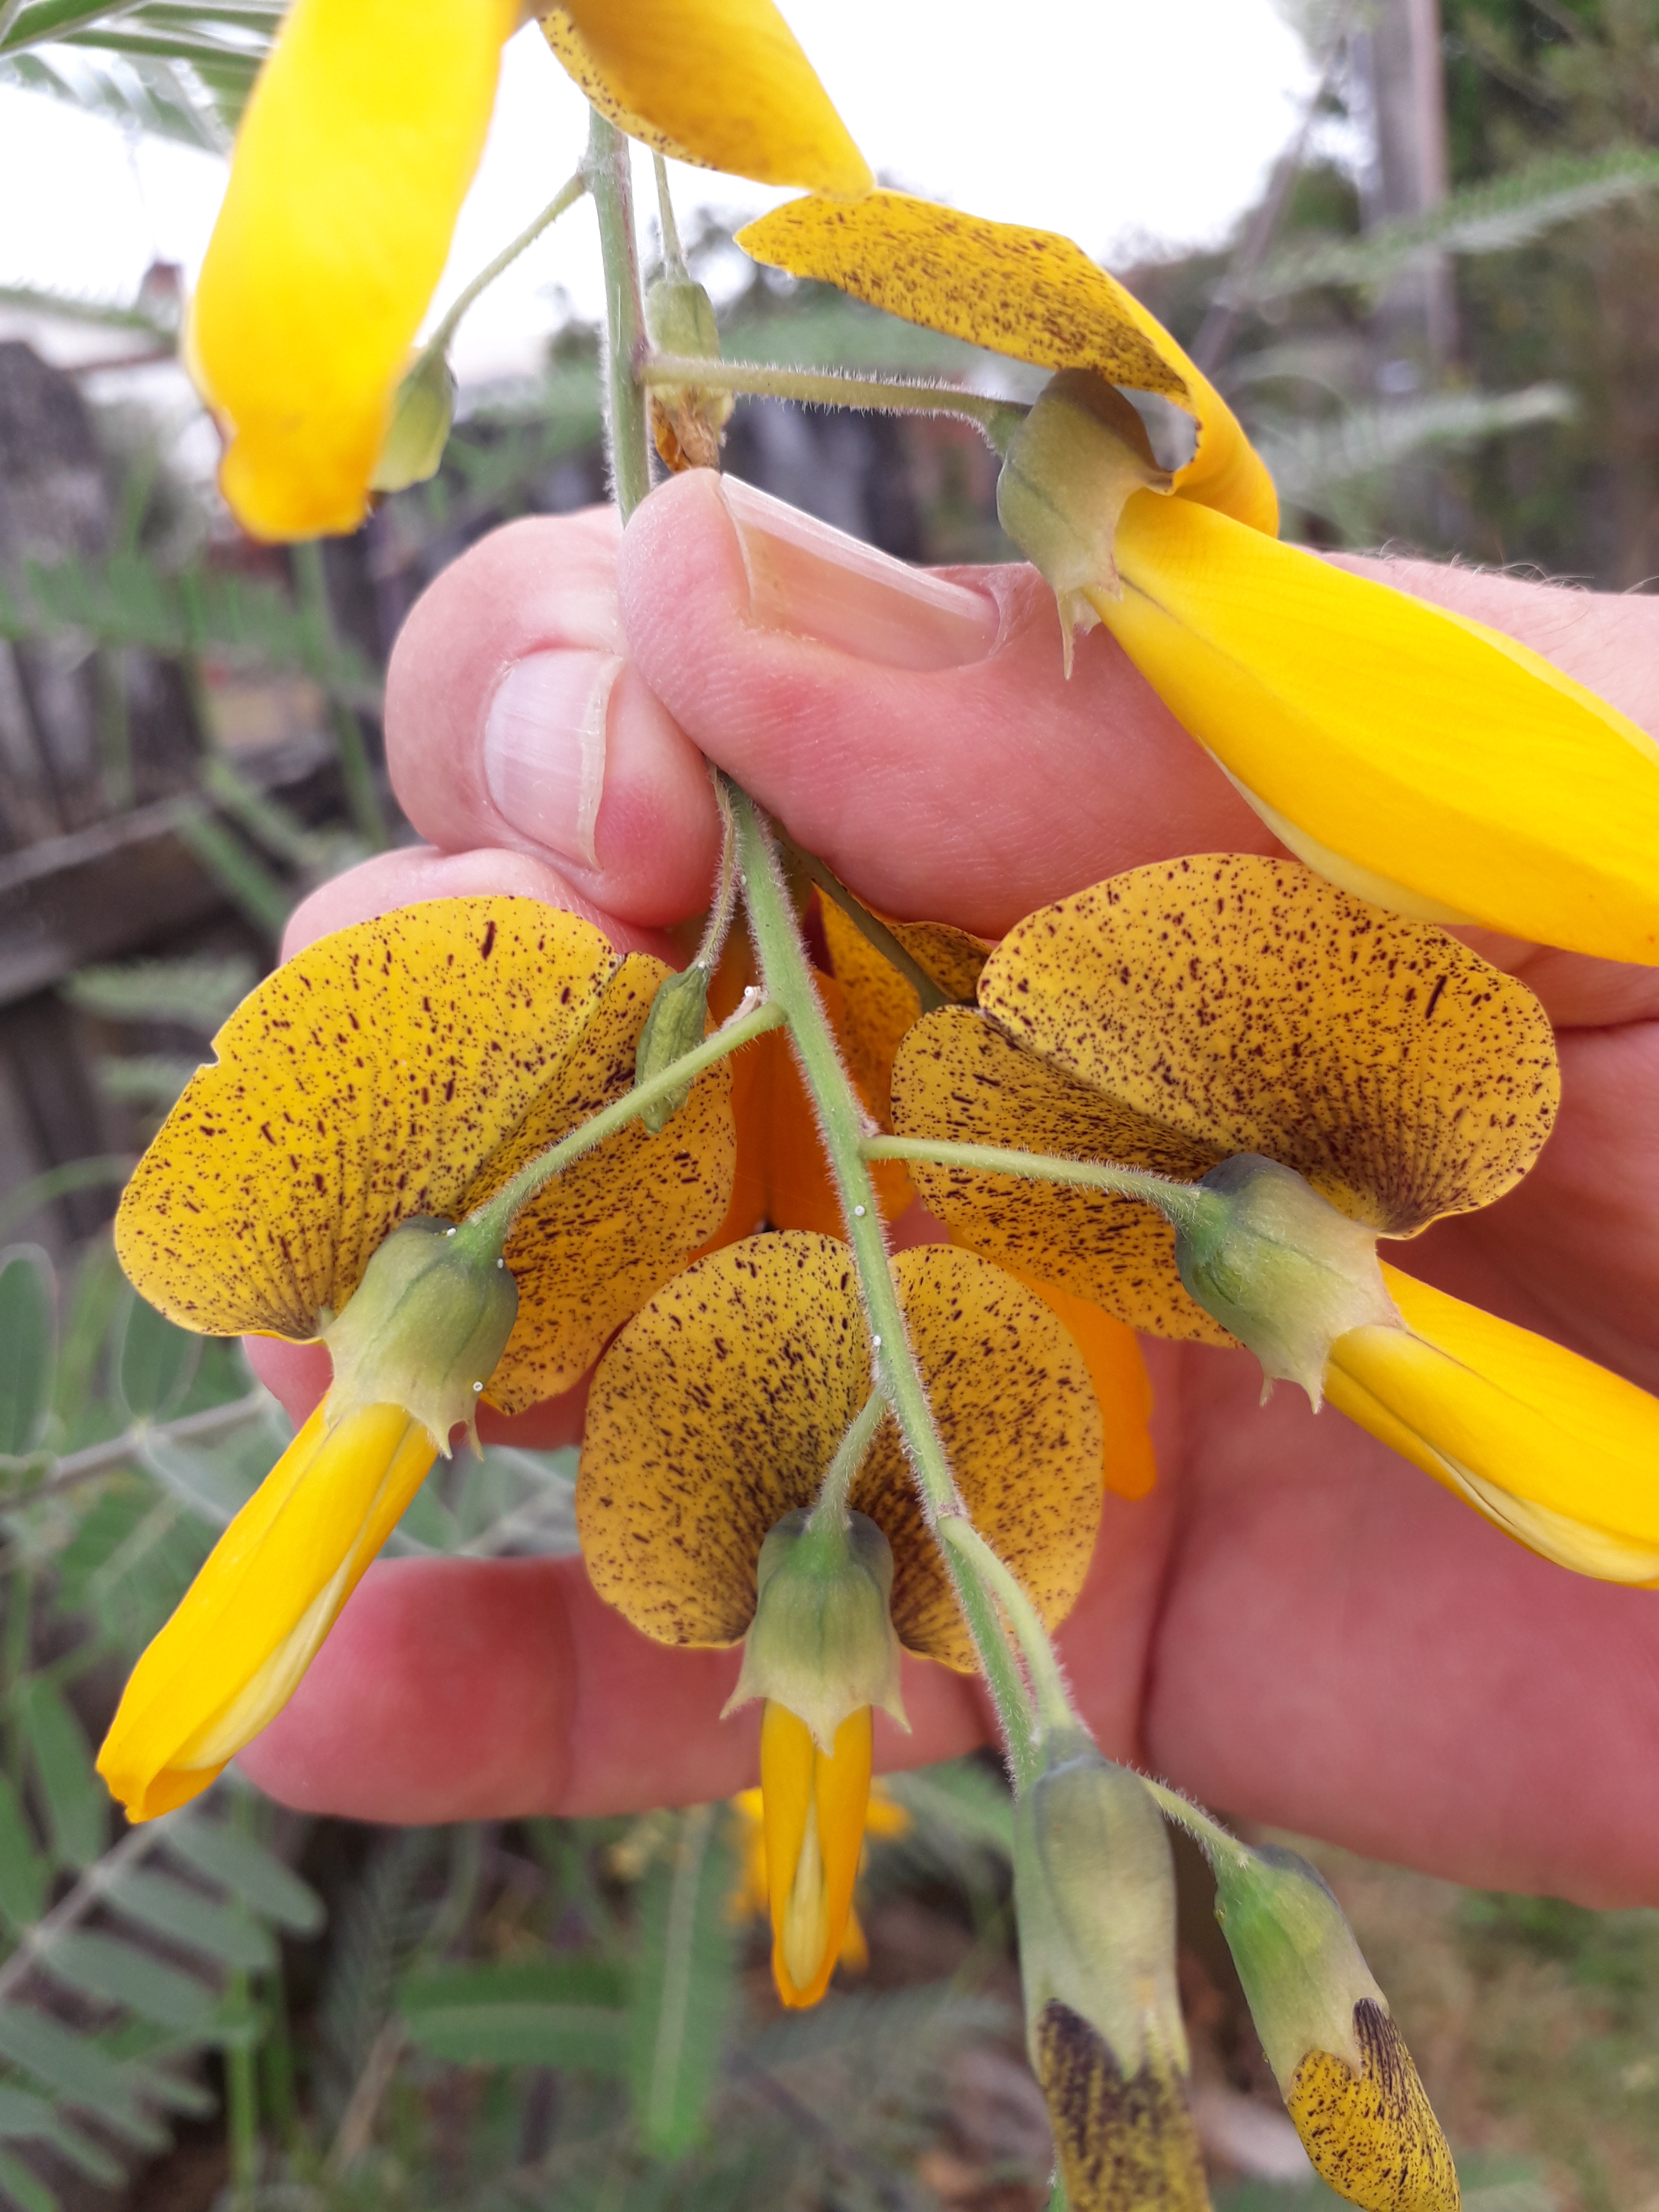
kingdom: Plantae
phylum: Tracheophyta
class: Magnoliopsida
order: Fabales
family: Fabaceae
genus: Sesbania
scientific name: Sesbania javanica
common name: Sesbania-pea
